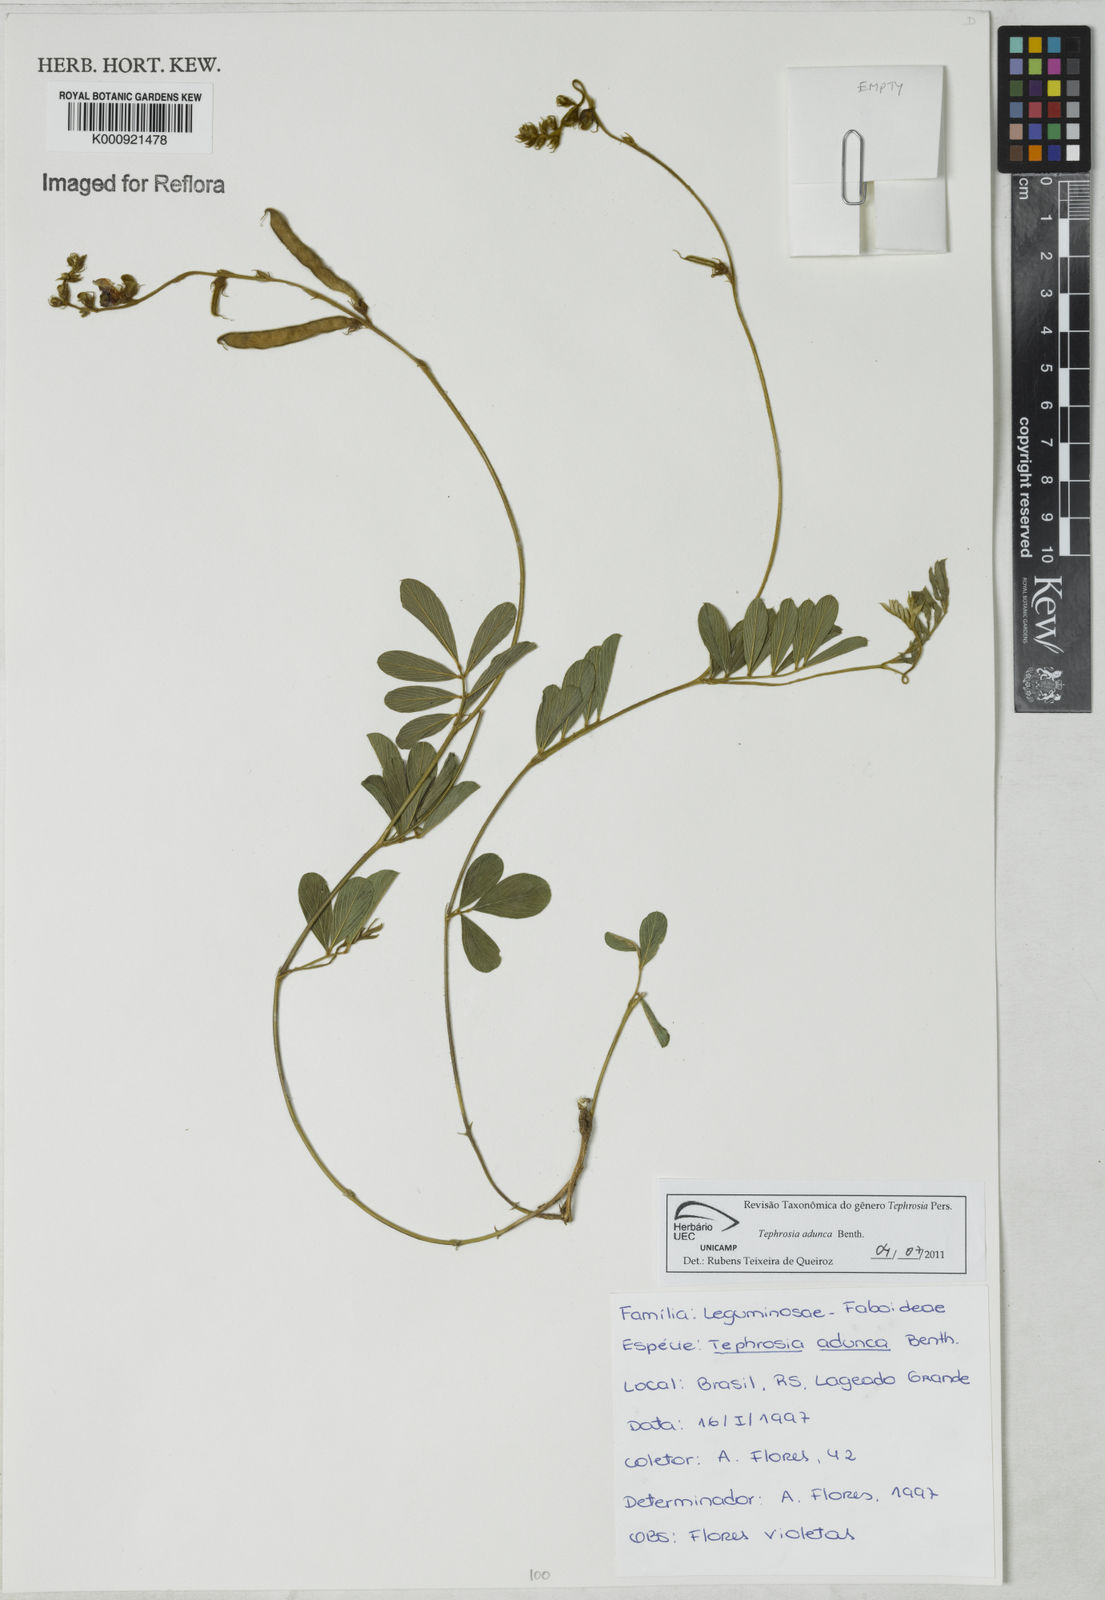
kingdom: Plantae
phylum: Tracheophyta
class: Magnoliopsida
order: Fabales
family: Fabaceae
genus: Tephrosia
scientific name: Tephrosia adunca
